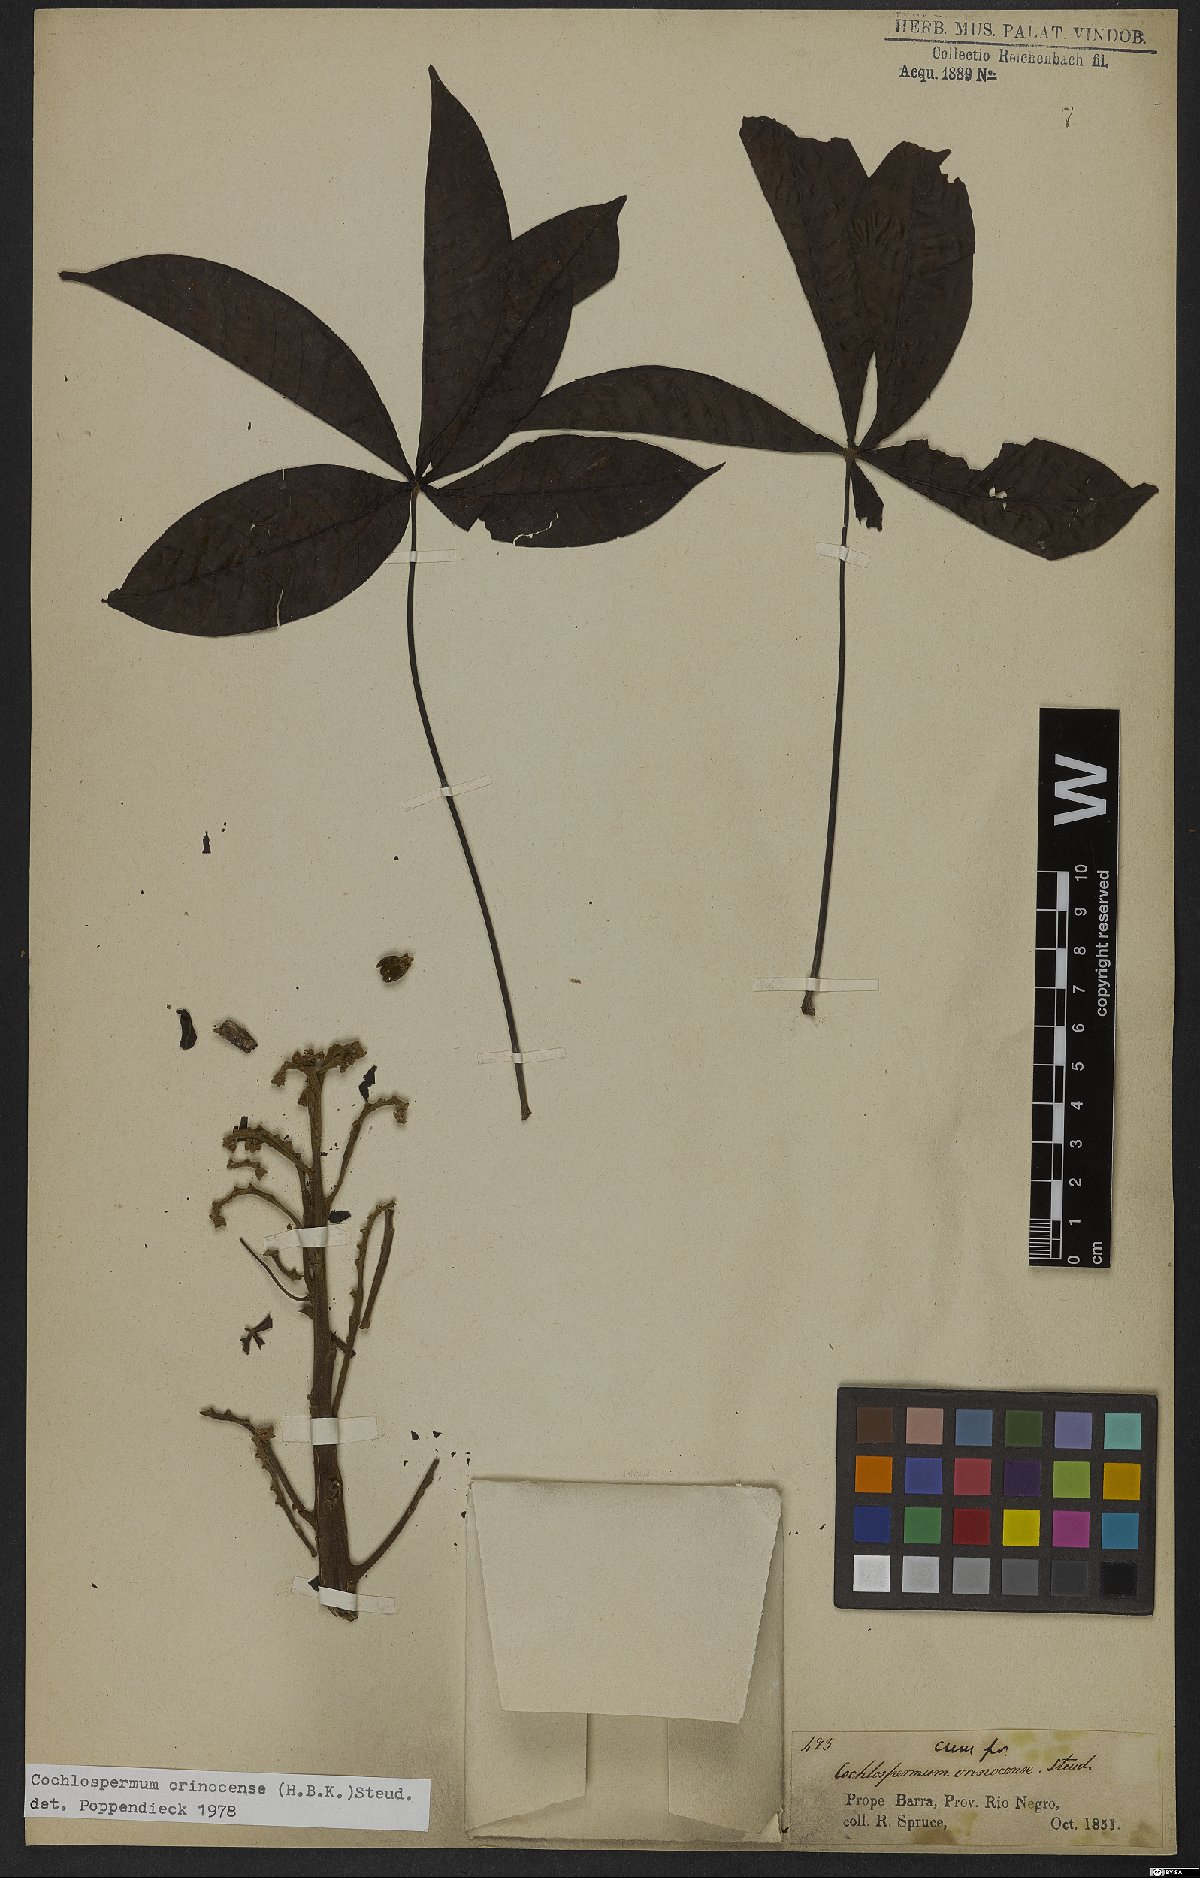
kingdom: Plantae
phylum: Tracheophyta
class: Magnoliopsida
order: Malvales
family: Cochlospermaceae
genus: Cochlospermum
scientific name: Cochlospermum orinocense
